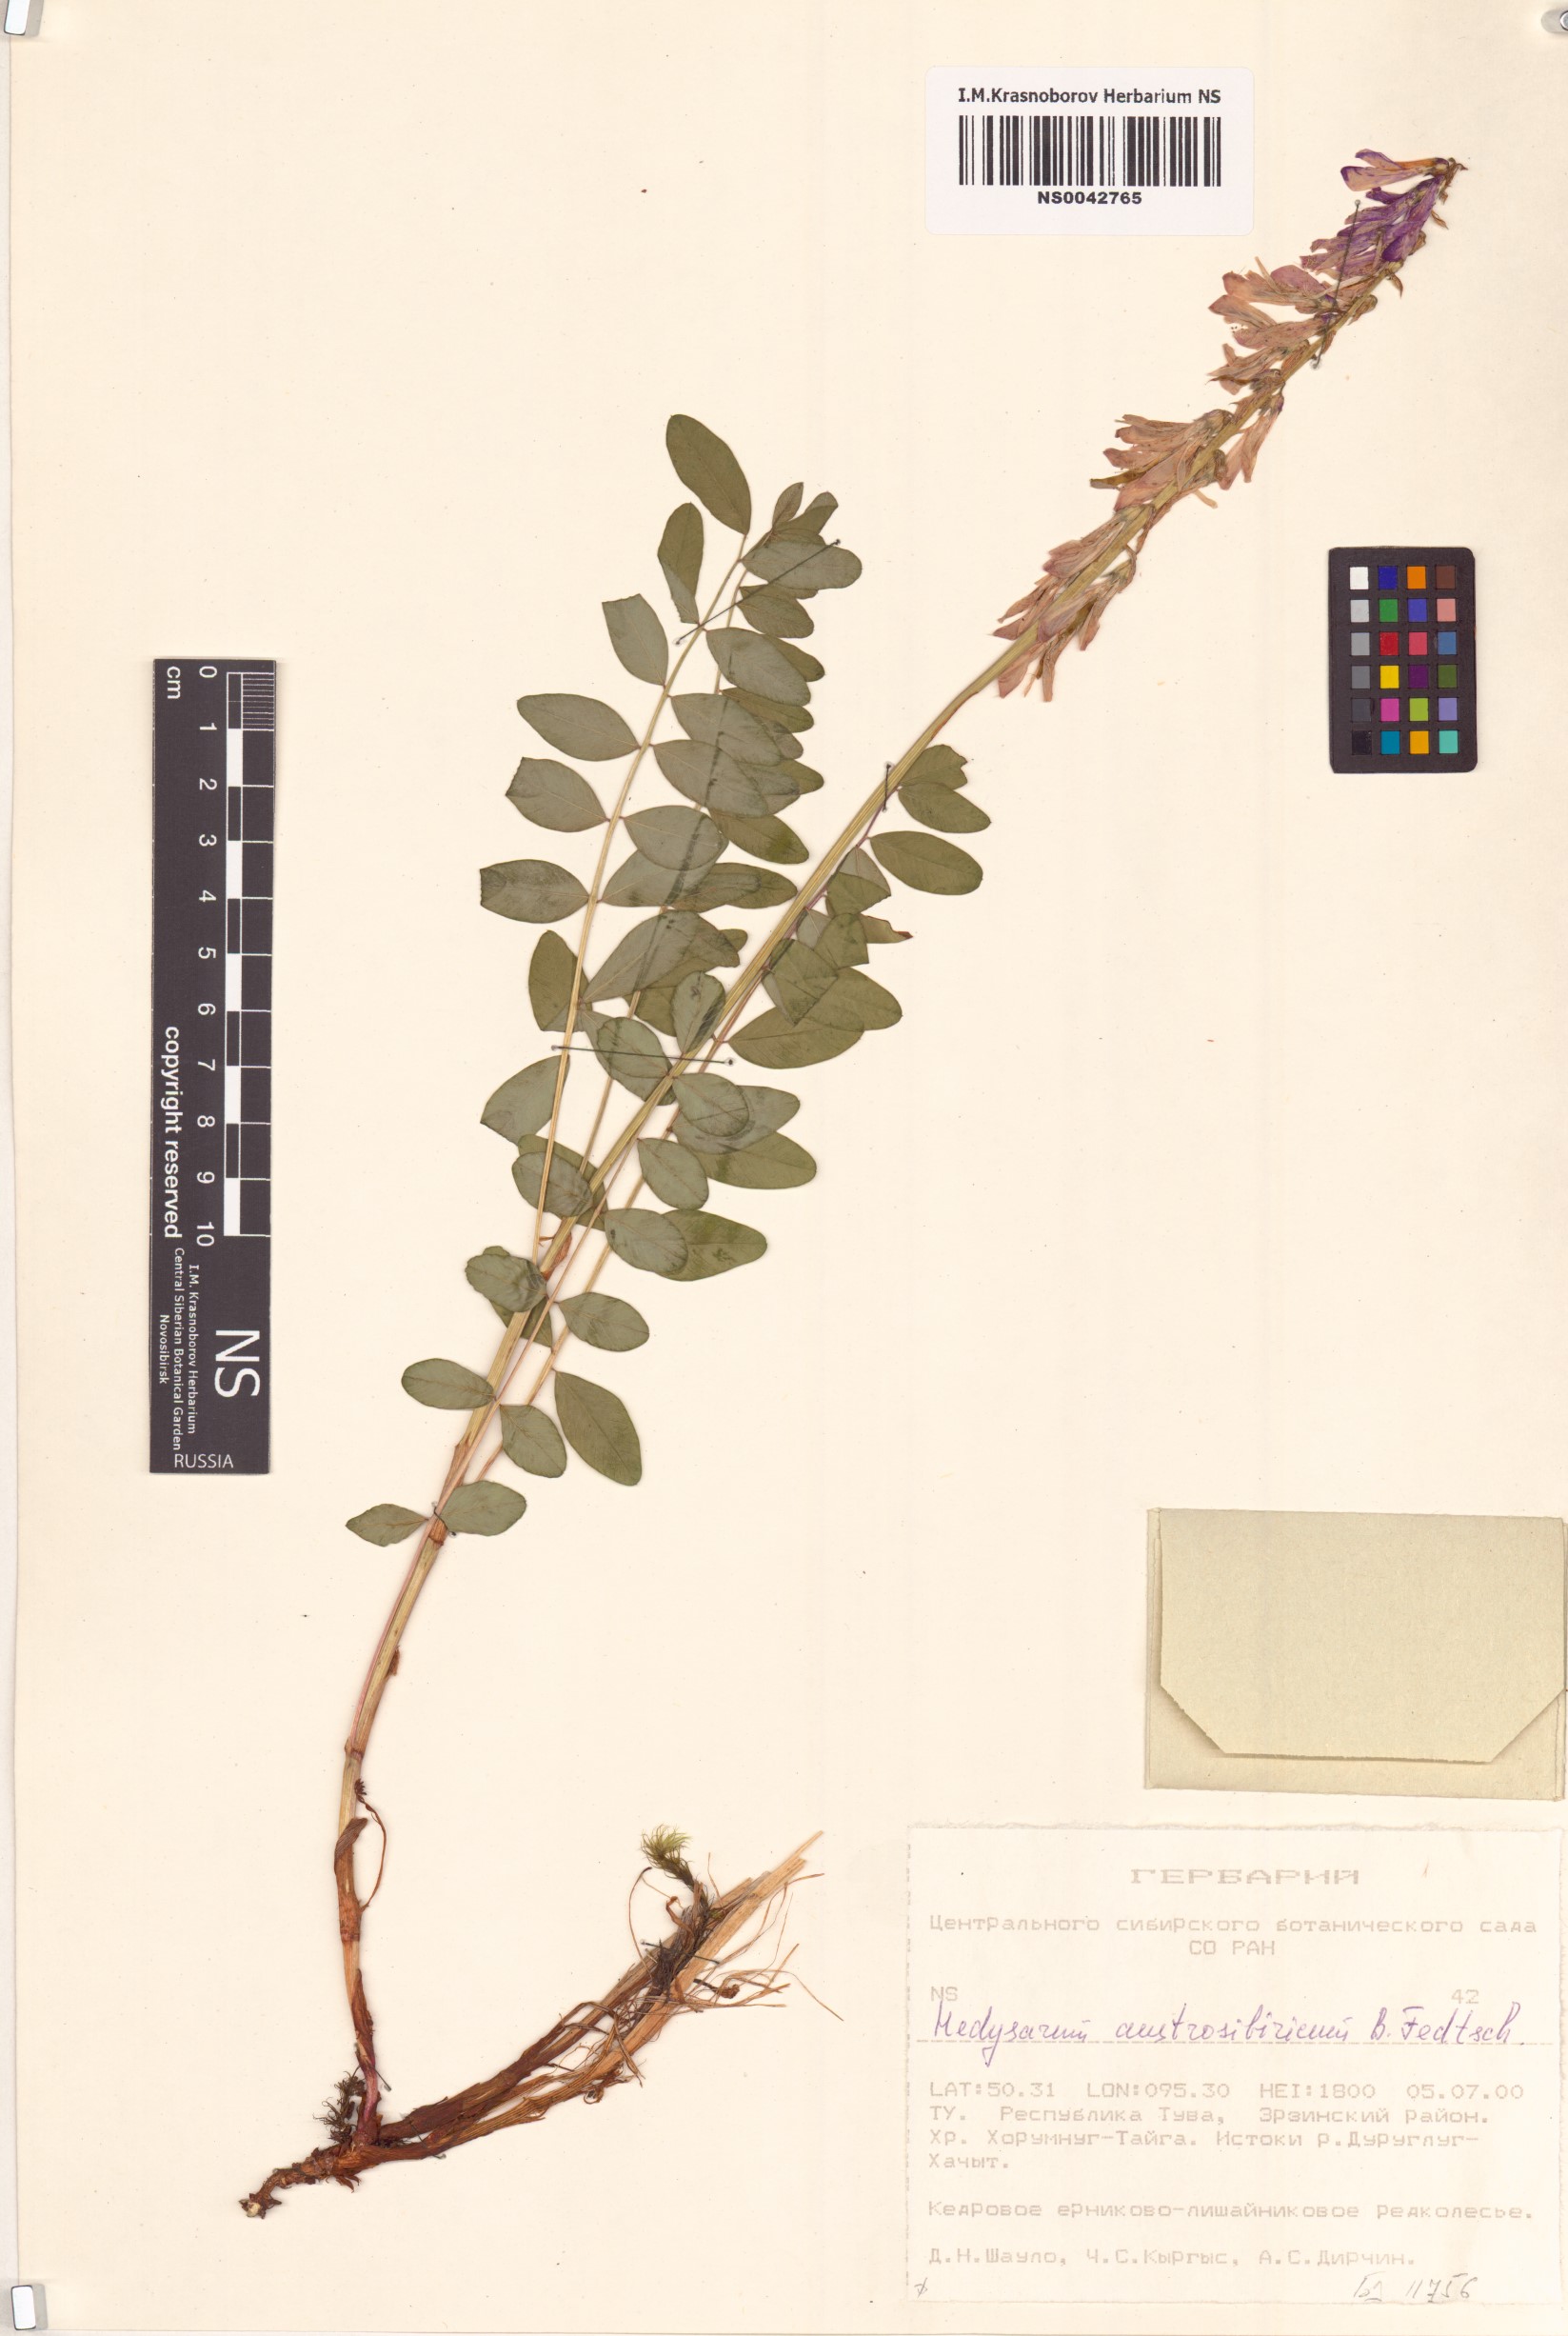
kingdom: Plantae
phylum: Tracheophyta
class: Magnoliopsida
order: Fabales
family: Fabaceae
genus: Hedysarum
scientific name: Hedysarum neglectum
